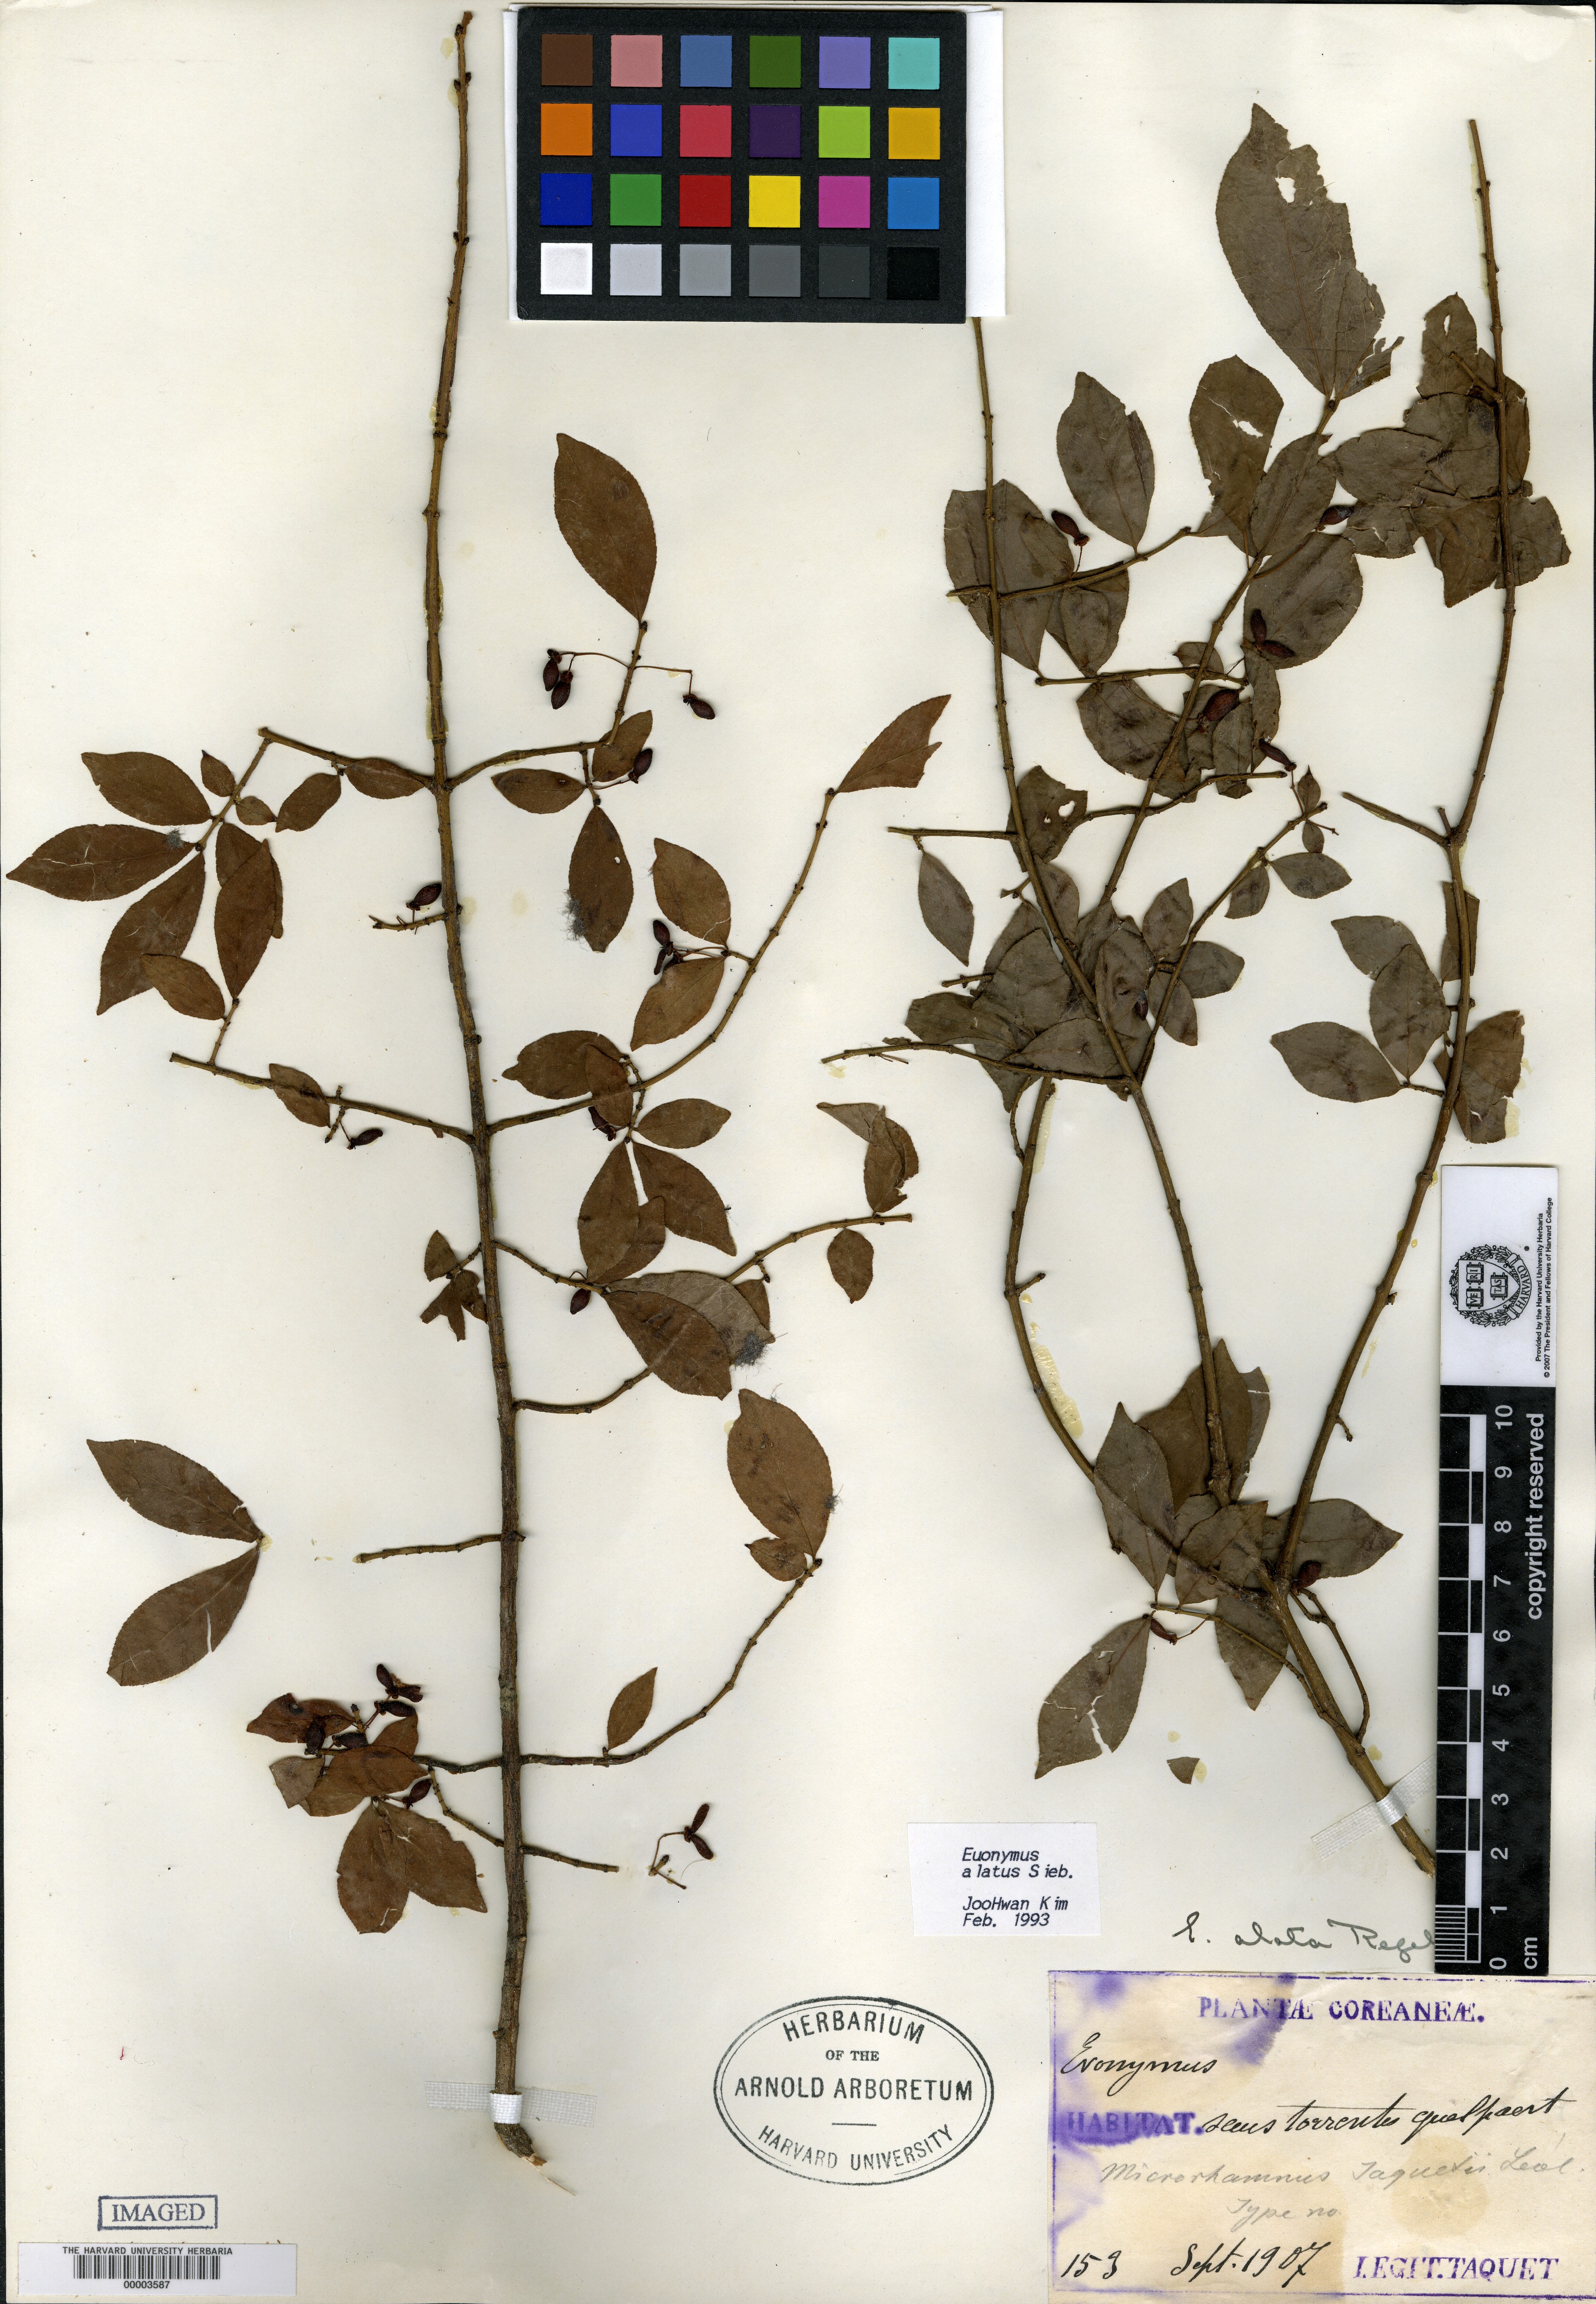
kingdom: Plantae
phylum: Tracheophyta
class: Magnoliopsida
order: Rosales
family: Rhamnaceae
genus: Rhamnella
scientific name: Rhamnella franguloides
